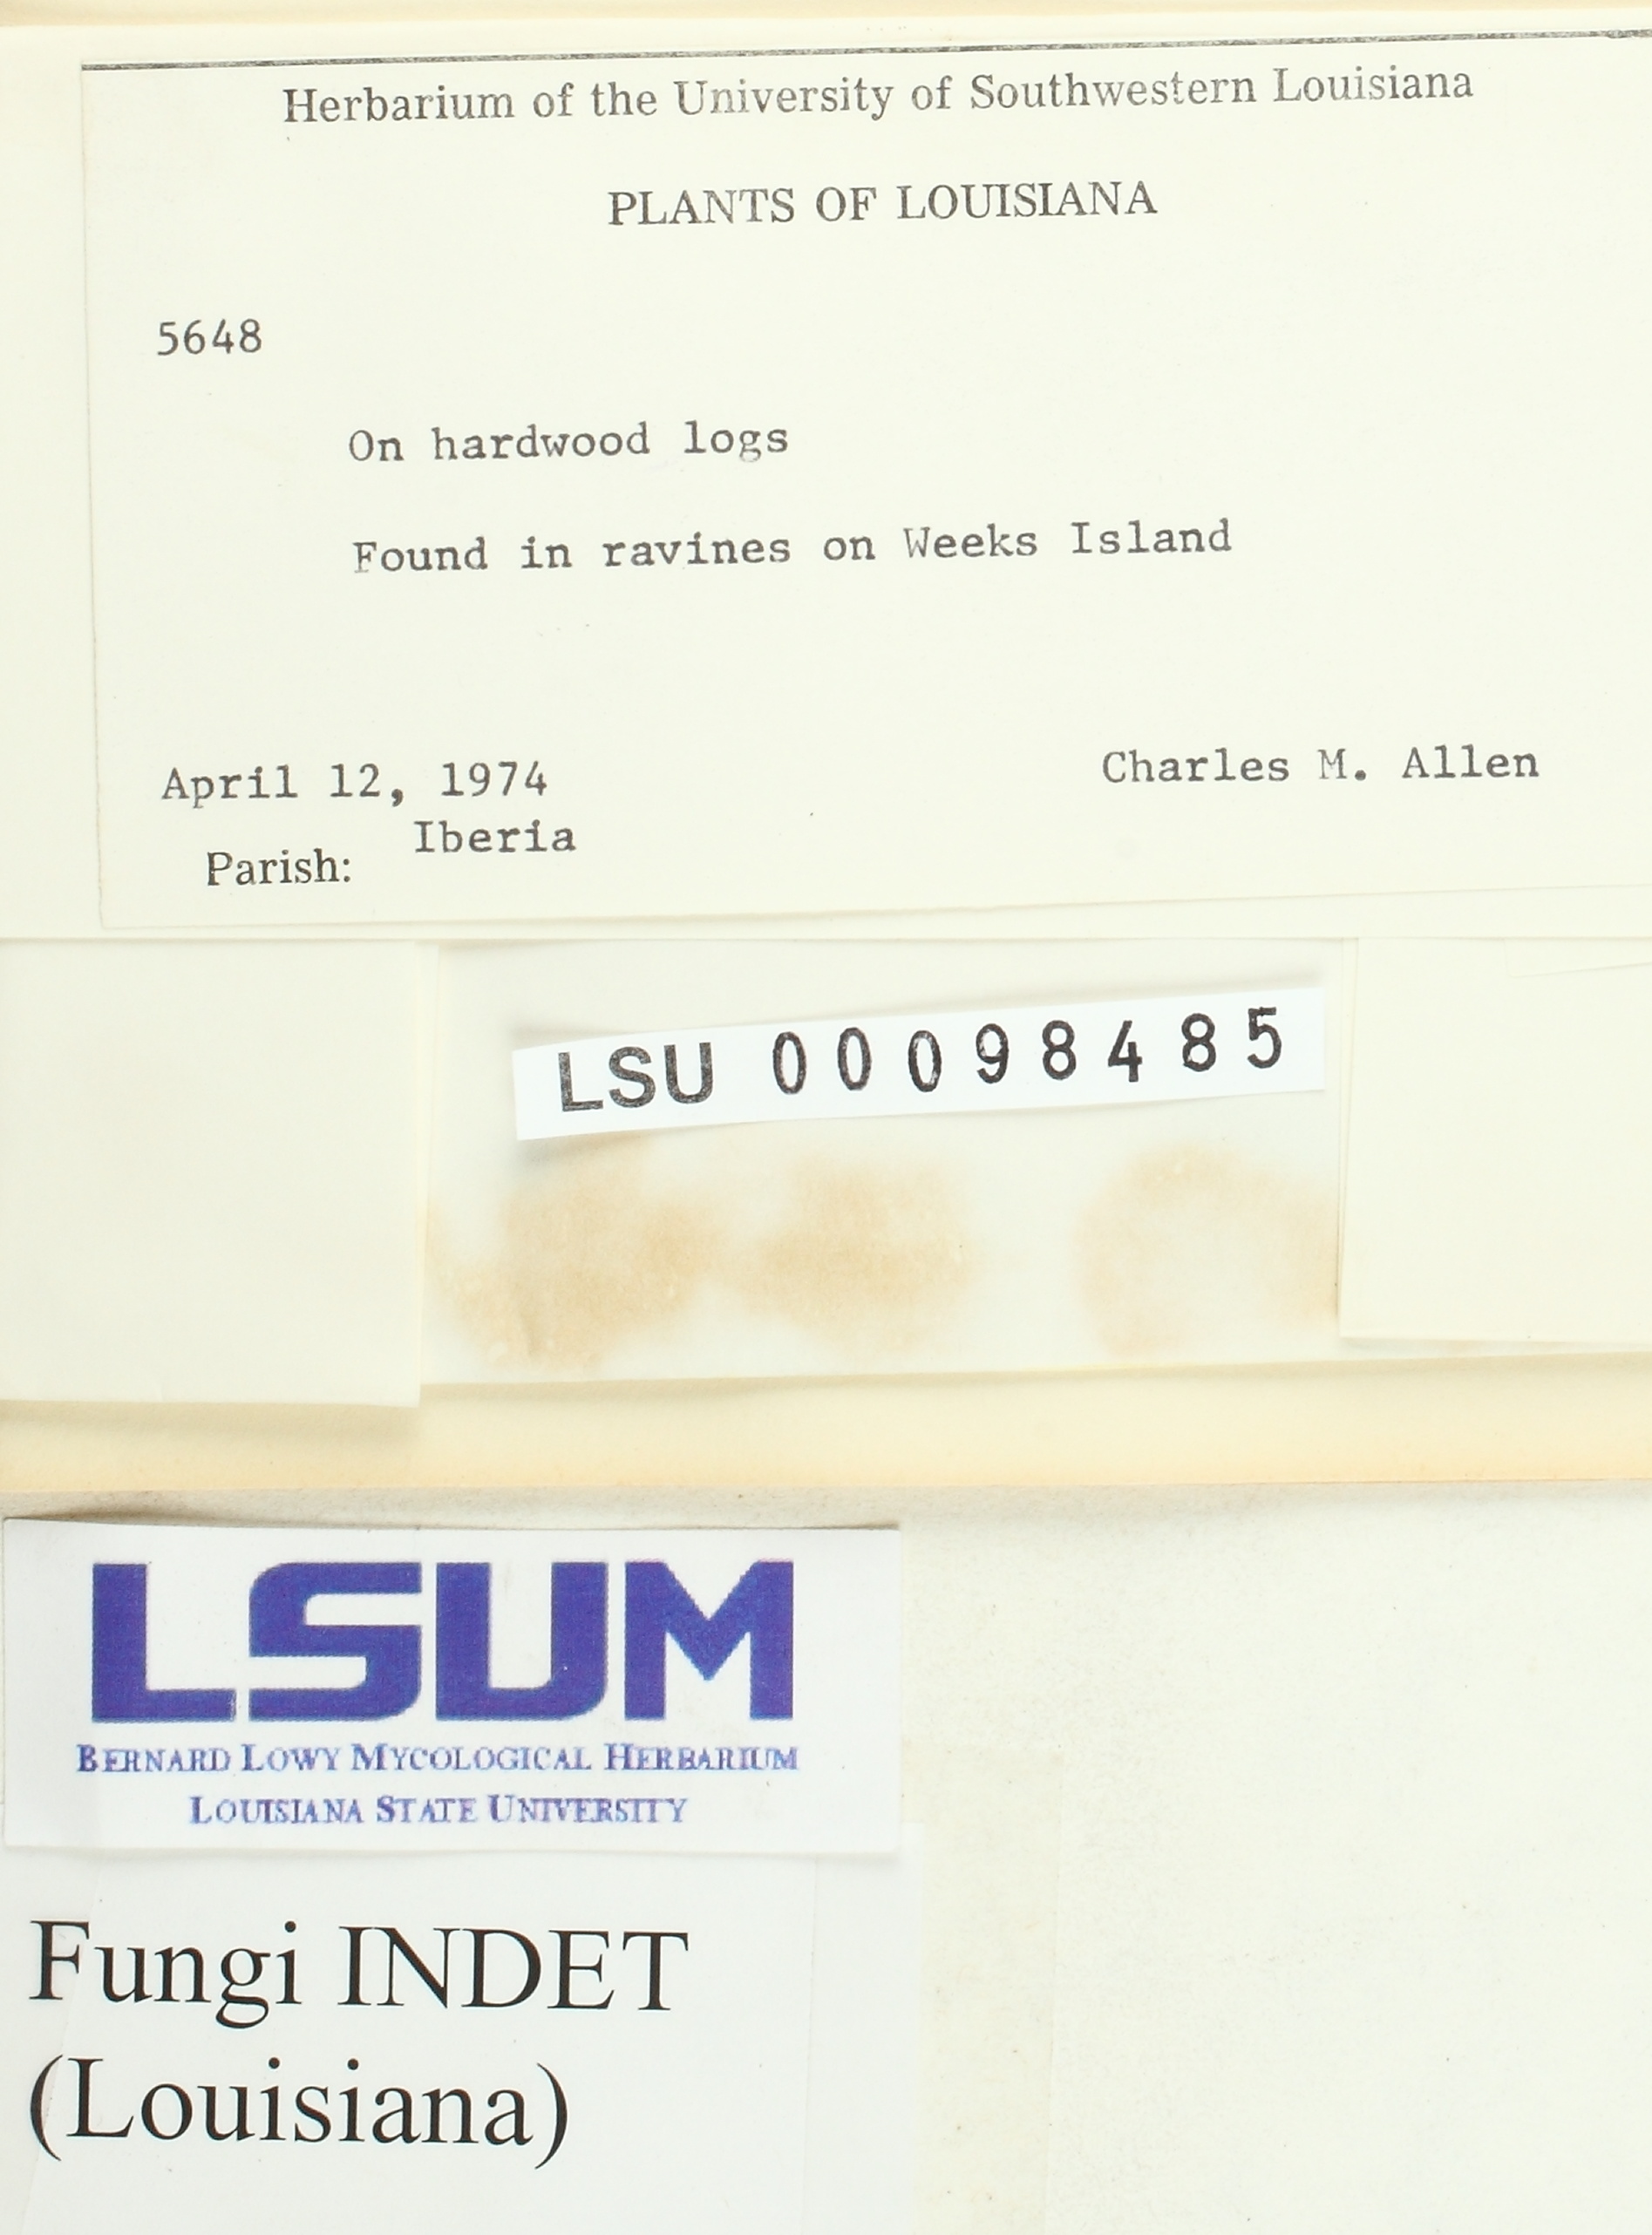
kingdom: Fungi
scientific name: Fungi
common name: Fungi
